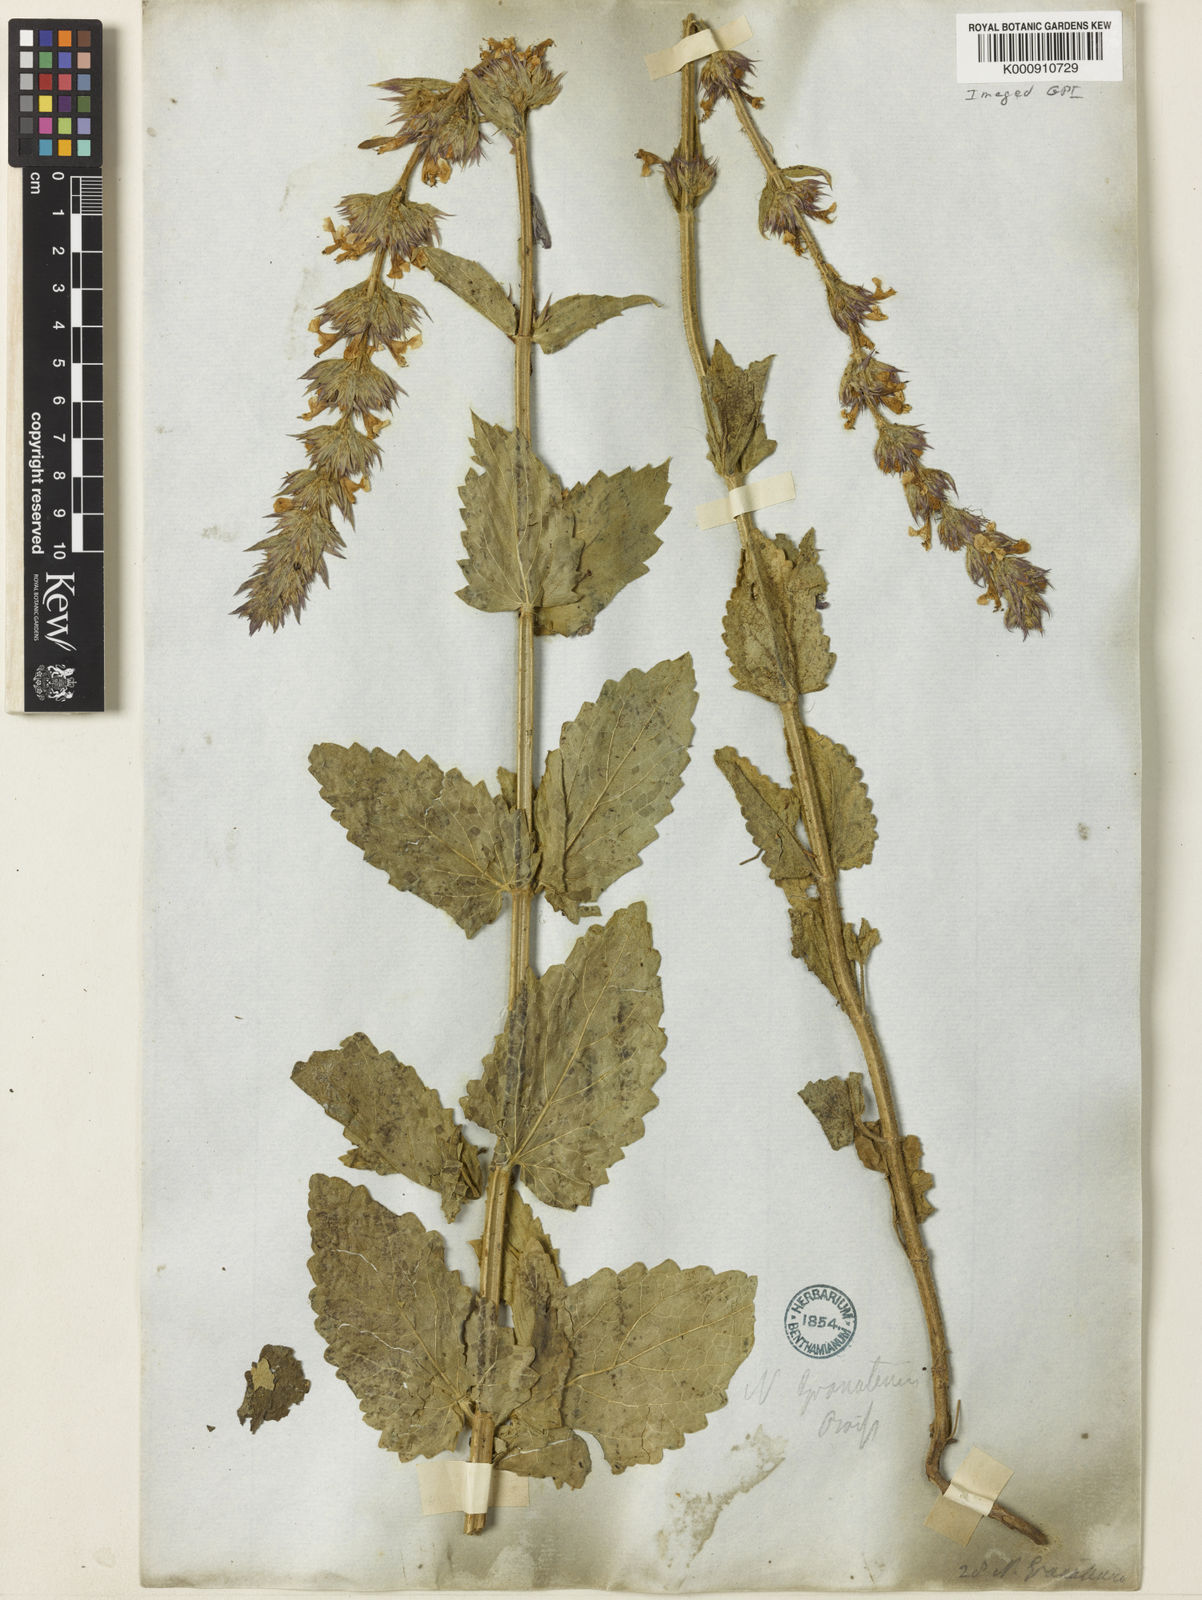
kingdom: Plantae
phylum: Tracheophyta
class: Magnoliopsida
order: Lamiales
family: Lamiaceae
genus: Nepeta
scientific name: Nepeta granatensis
